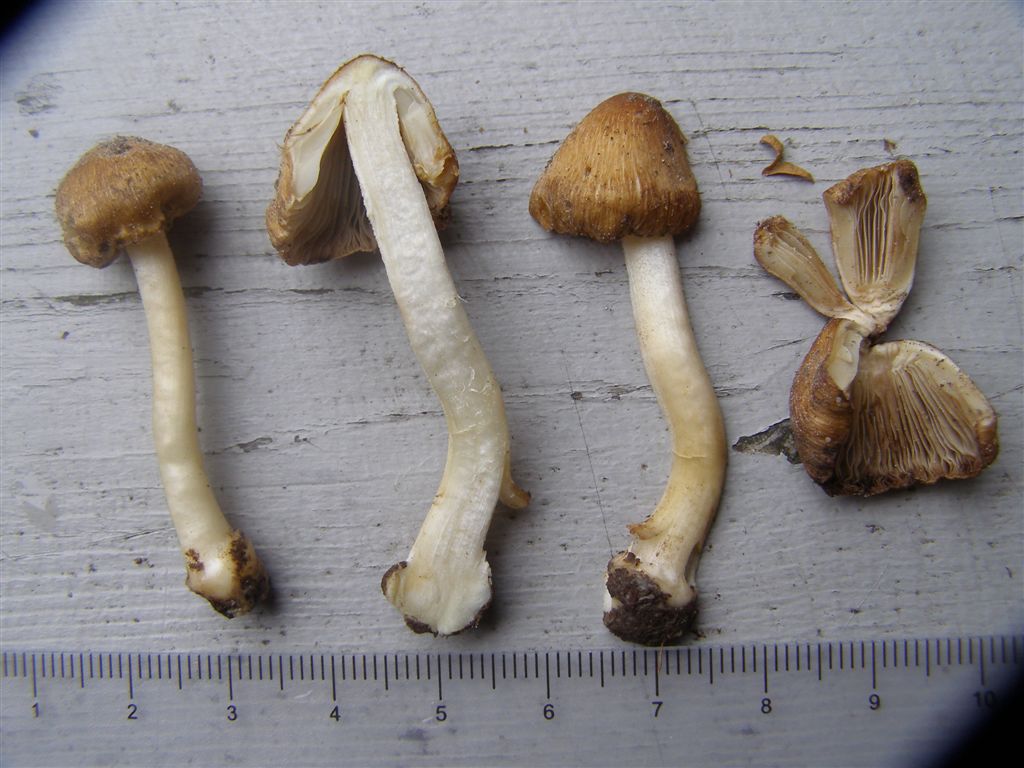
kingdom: Fungi
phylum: Basidiomycota
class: Agaricomycetes
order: Agaricales
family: Inocybaceae
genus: Inocybe
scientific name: Inocybe
